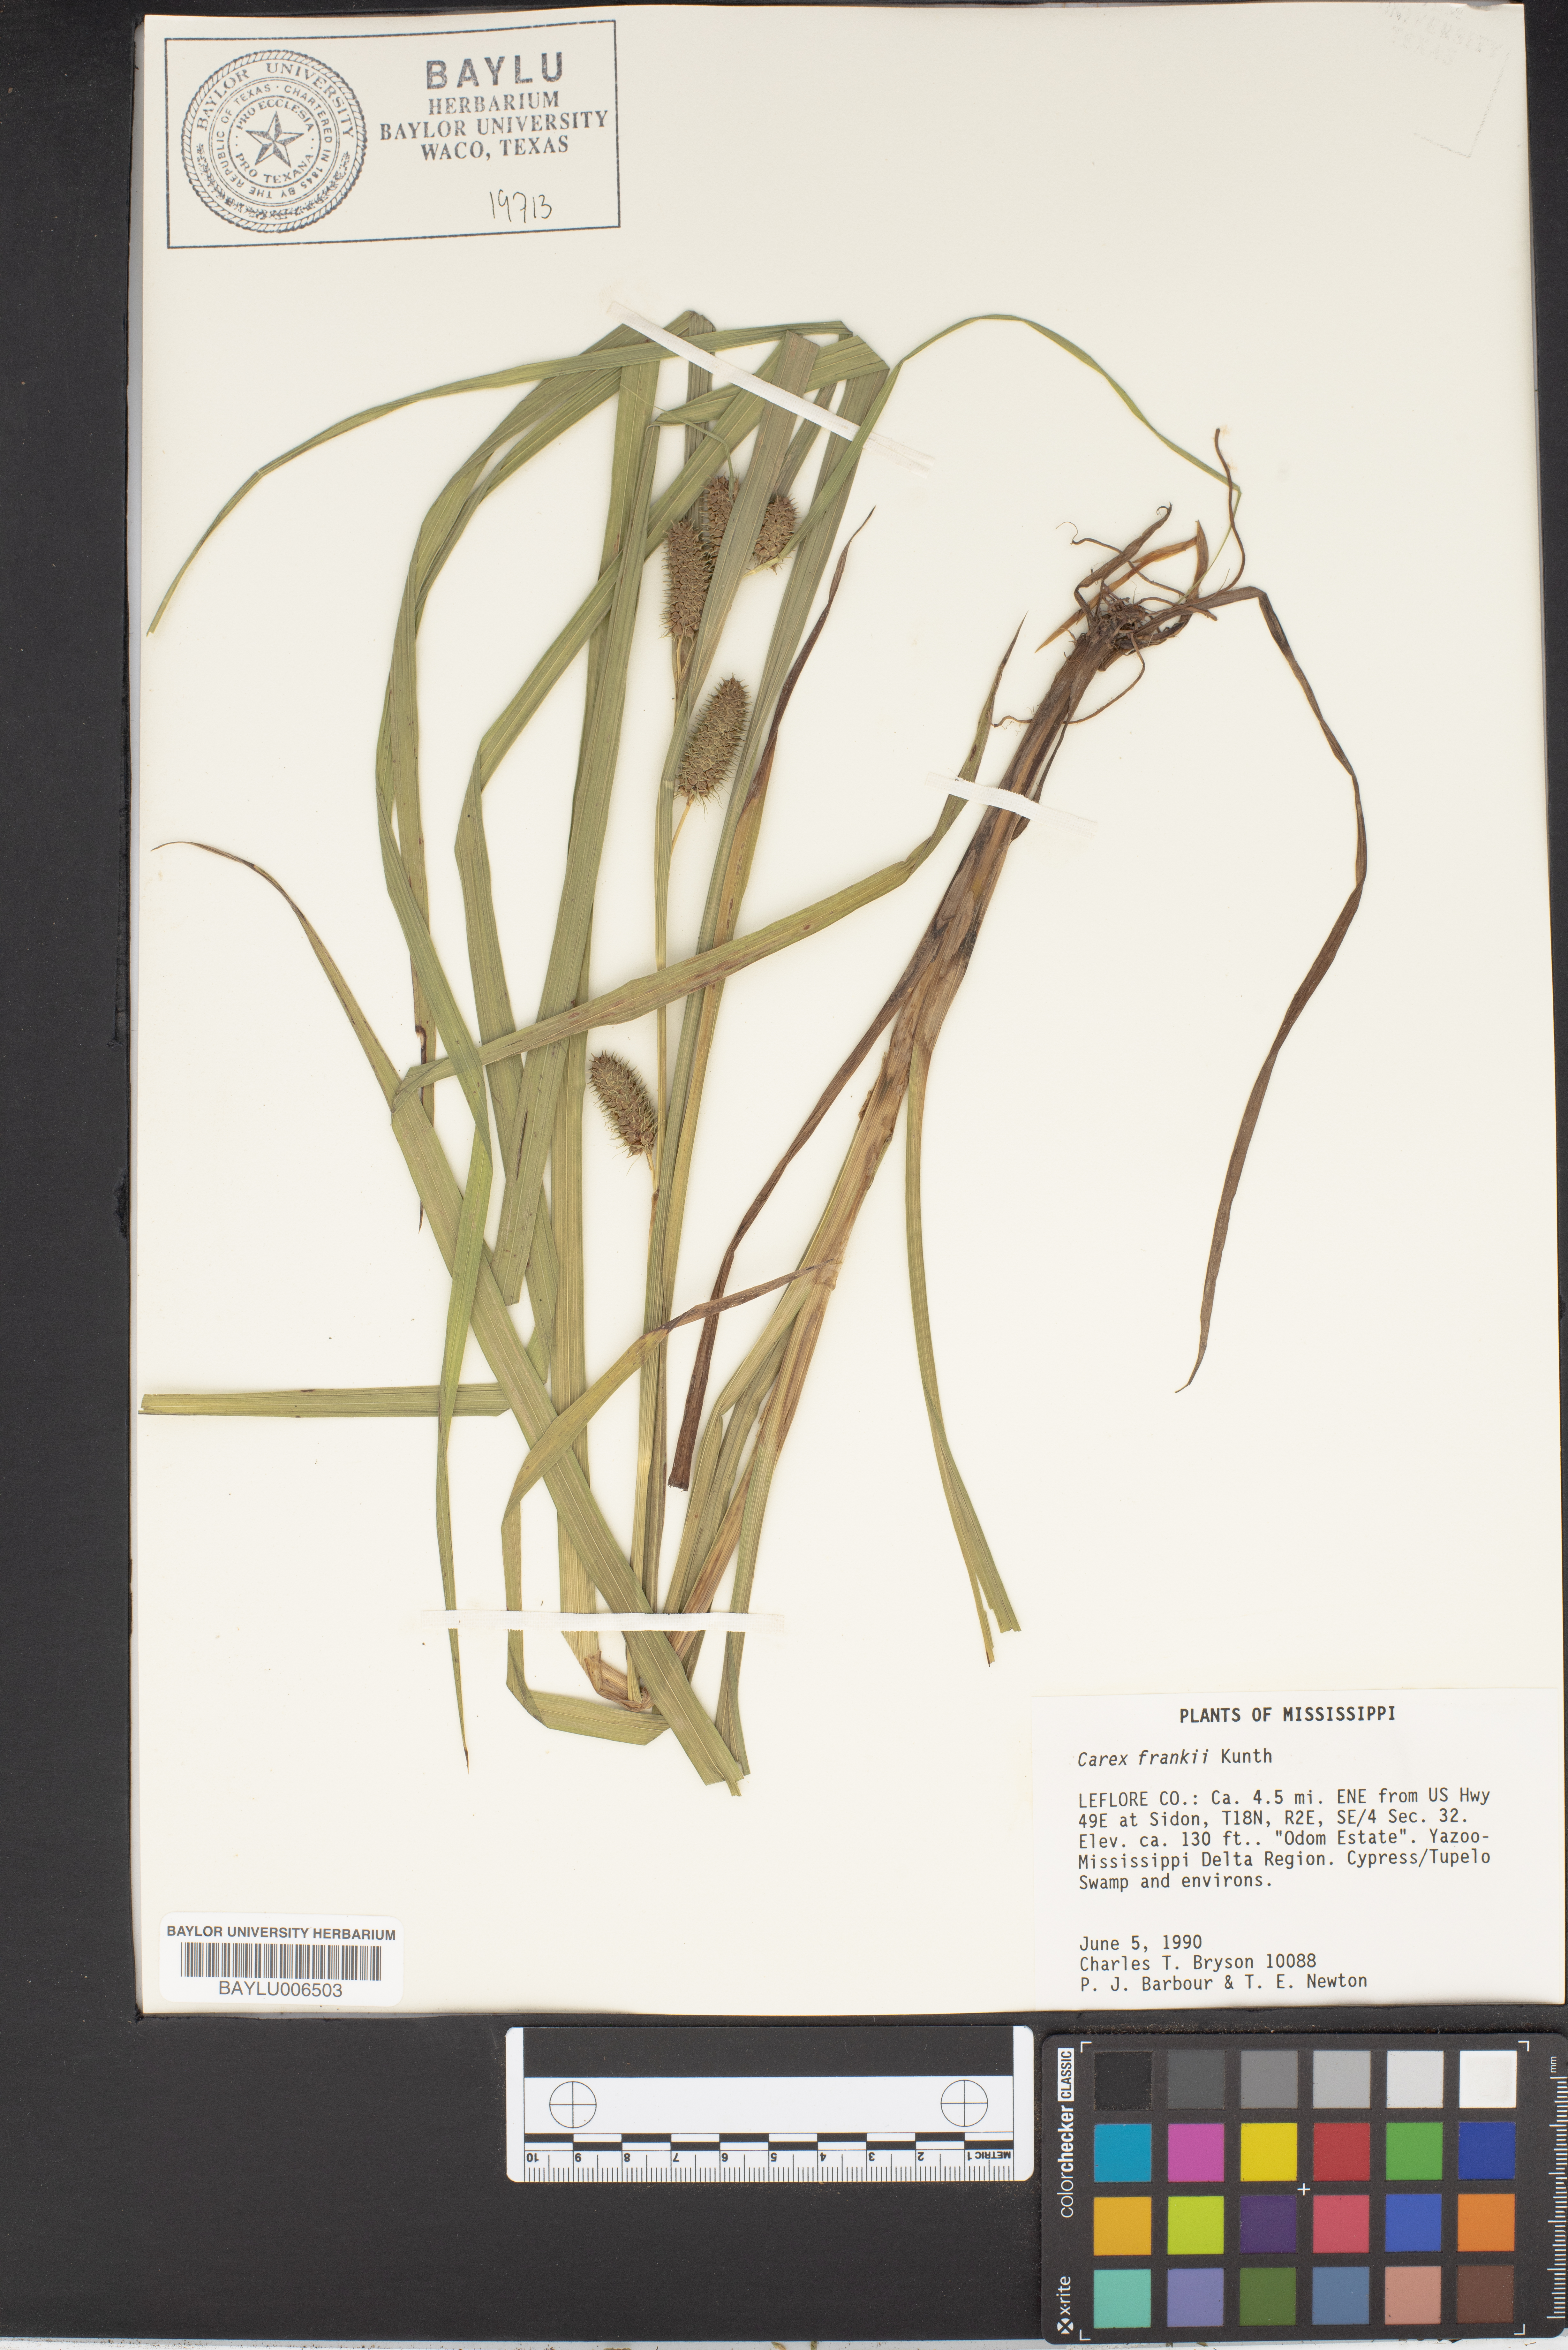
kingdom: Plantae
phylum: Tracheophyta
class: Liliopsida
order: Poales
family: Cyperaceae
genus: Carex
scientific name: Carex frankii
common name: Frank's sedge
